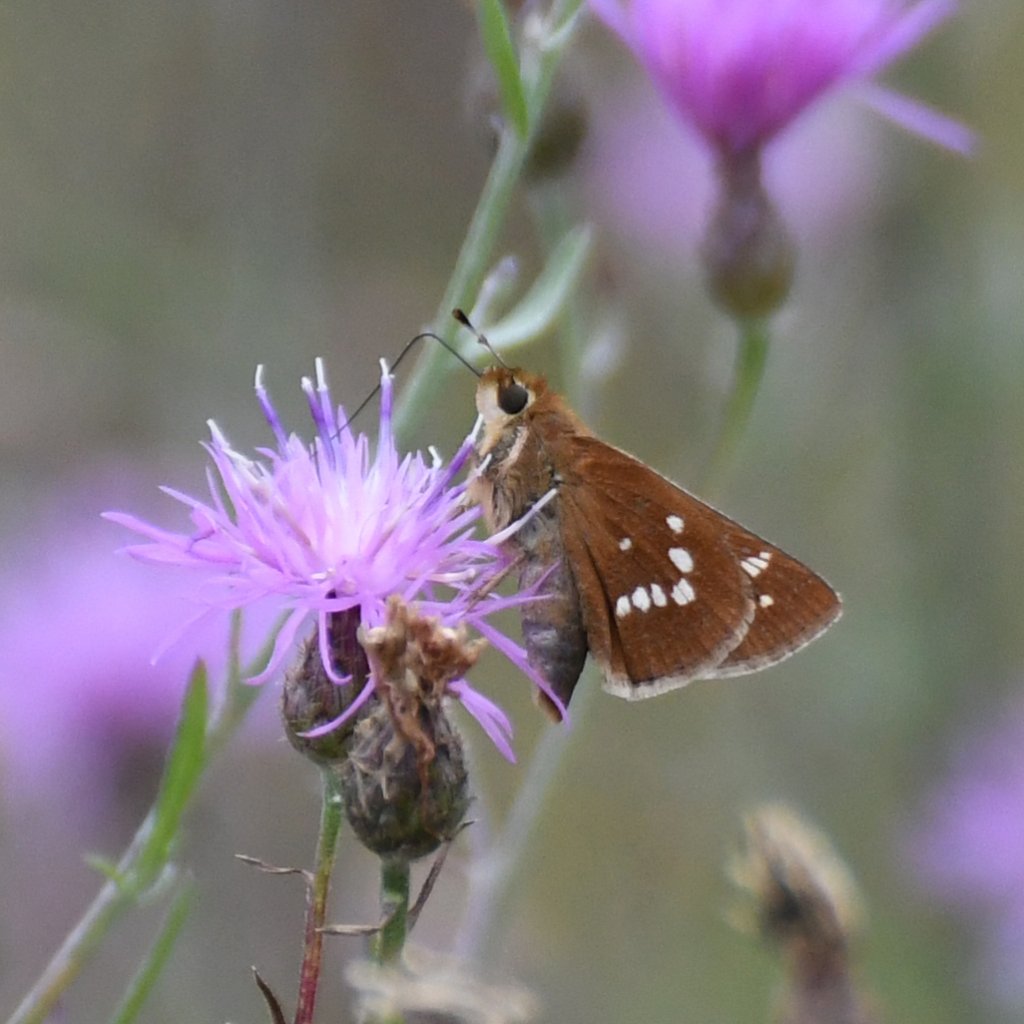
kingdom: Animalia
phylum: Arthropoda
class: Insecta
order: Lepidoptera
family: Hesperiidae
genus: Hesperia
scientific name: Hesperia leonardus
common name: Leonard's Skipper
